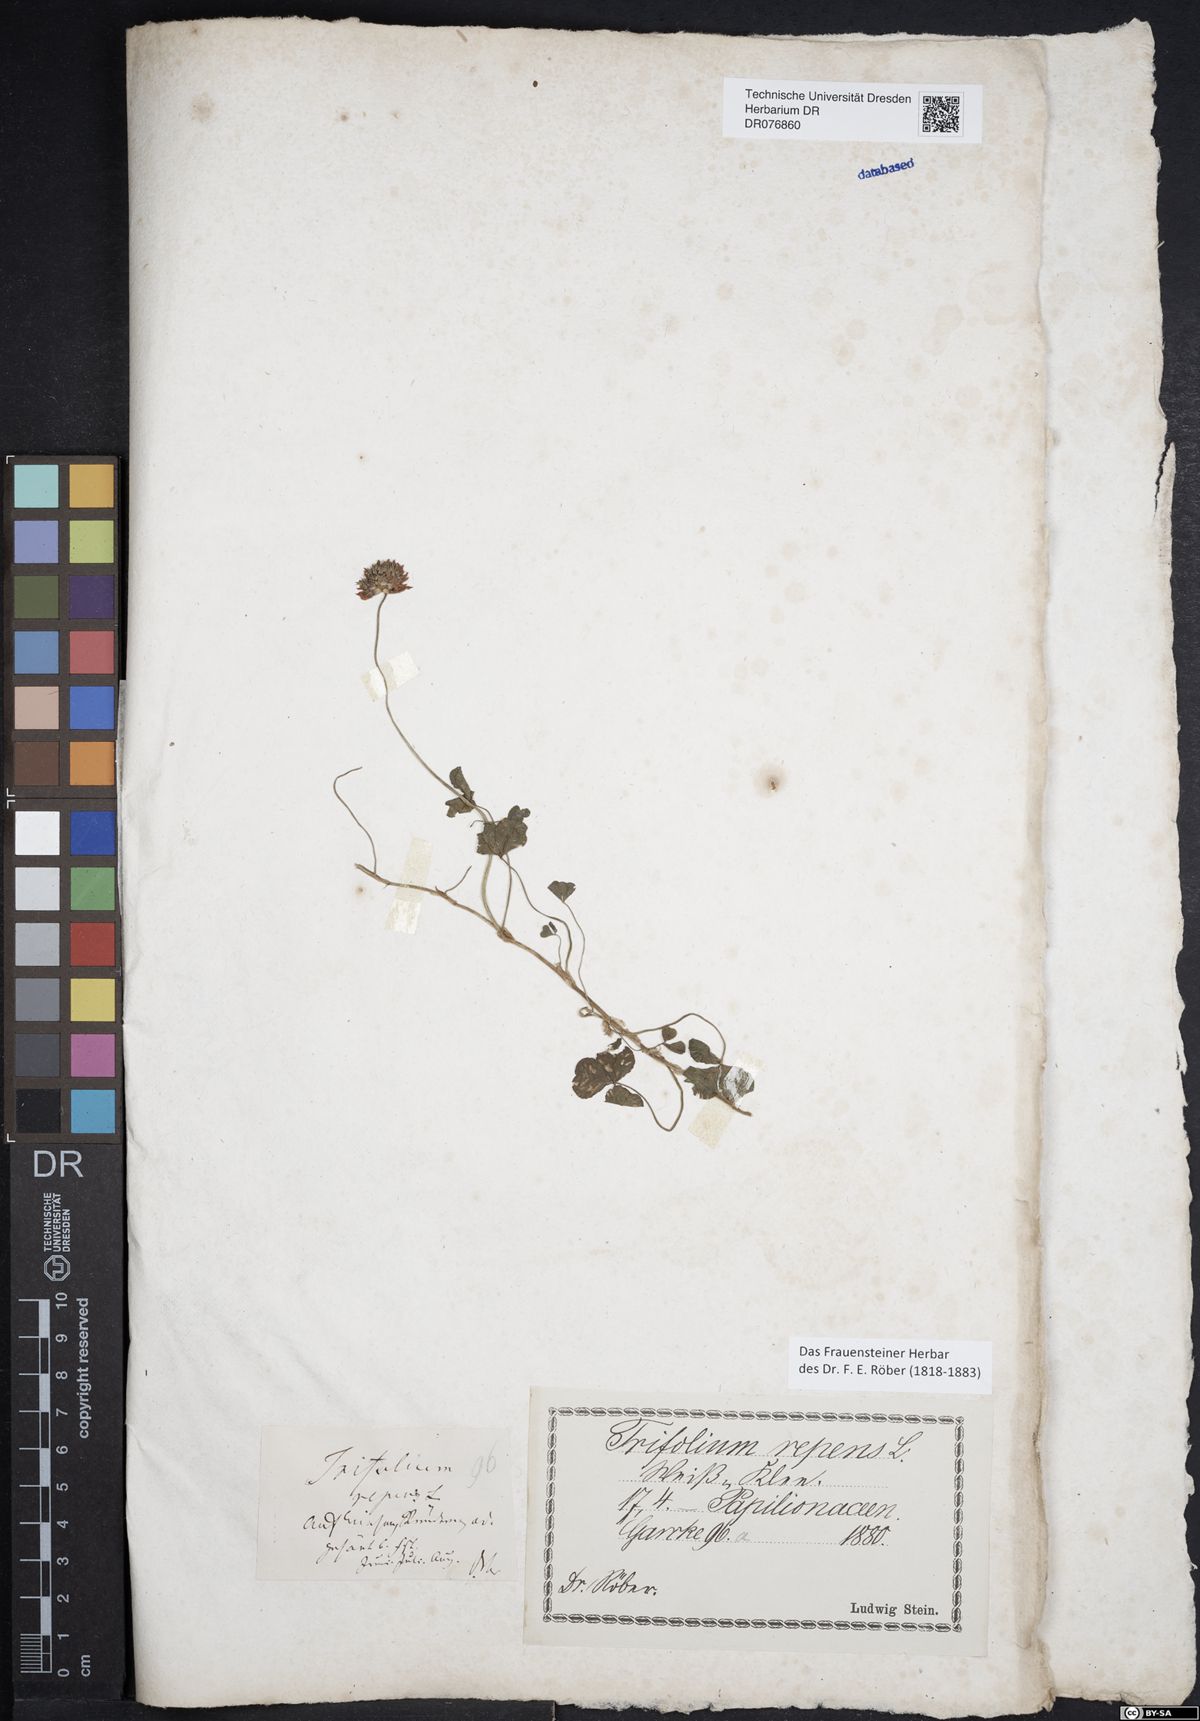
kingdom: Plantae
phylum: Tracheophyta
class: Magnoliopsida
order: Fabales
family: Fabaceae
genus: Trifolium
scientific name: Trifolium repens
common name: White clover
